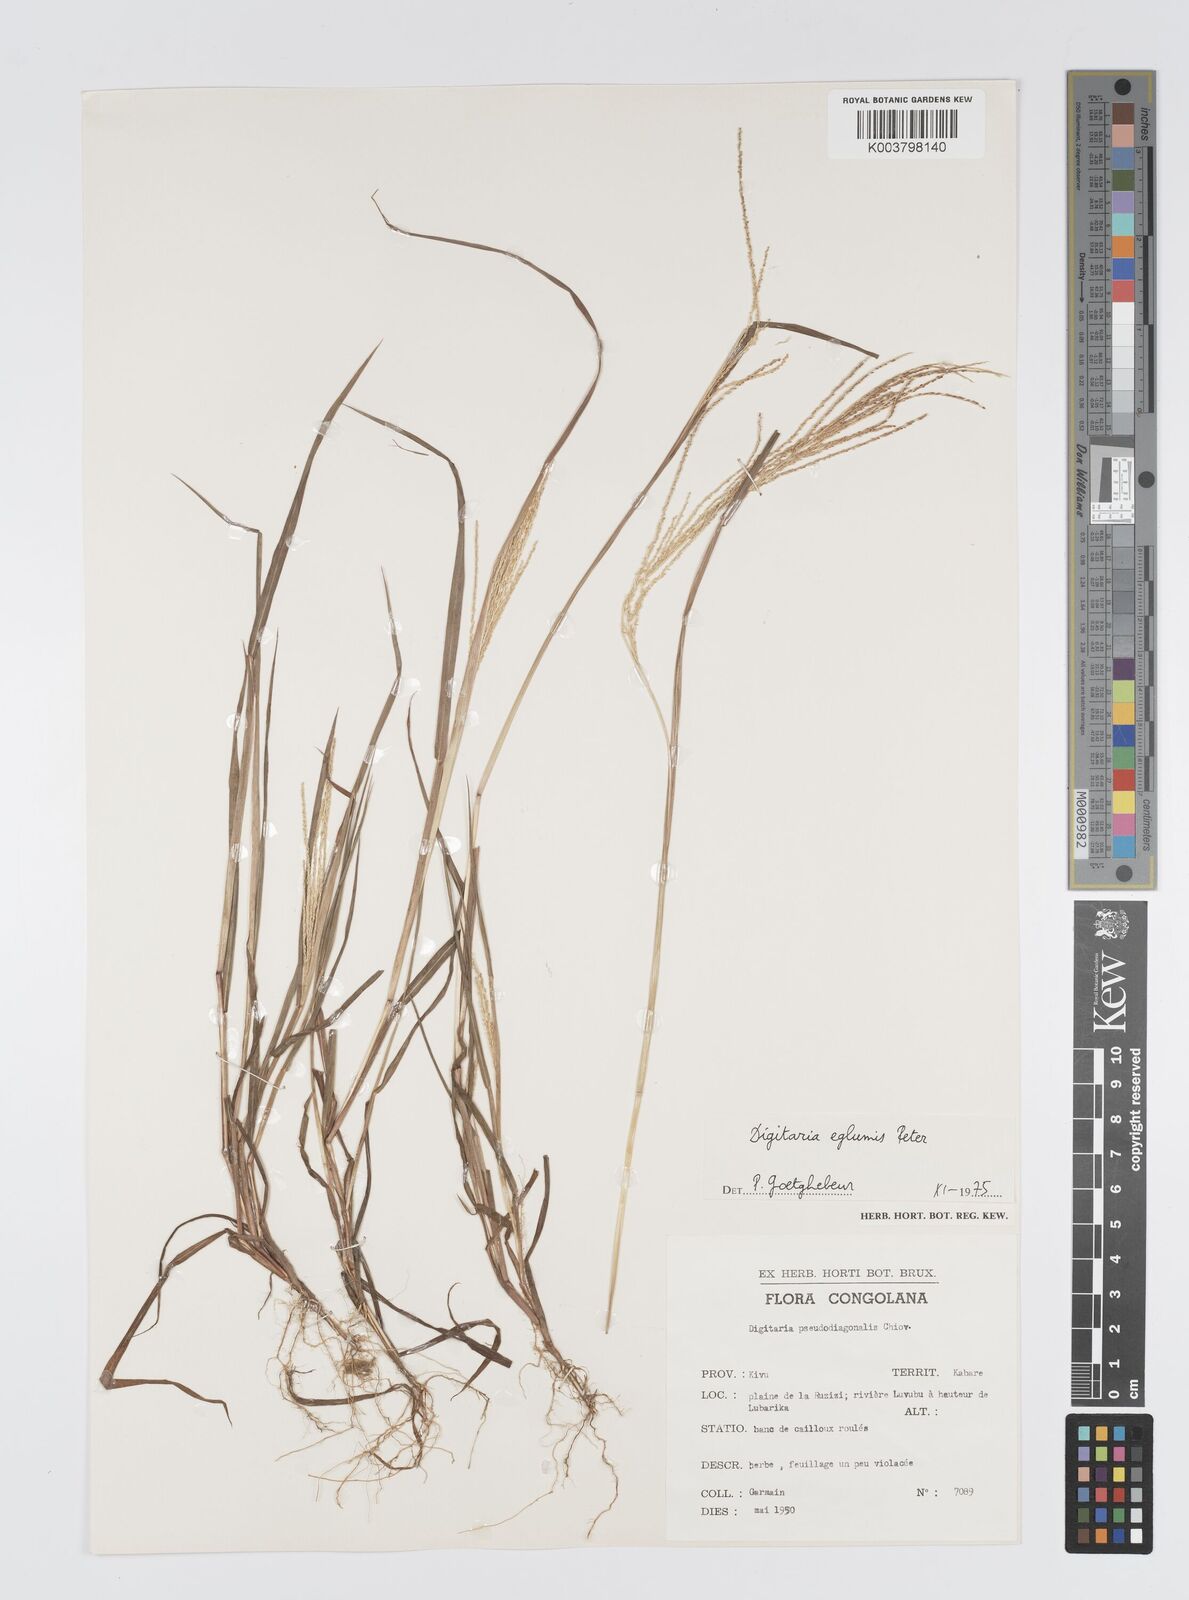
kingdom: Plantae
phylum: Tracheophyta
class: Liliopsida
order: Poales
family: Poaceae
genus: Digitaria
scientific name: Digitaria pseudodiagonalis
